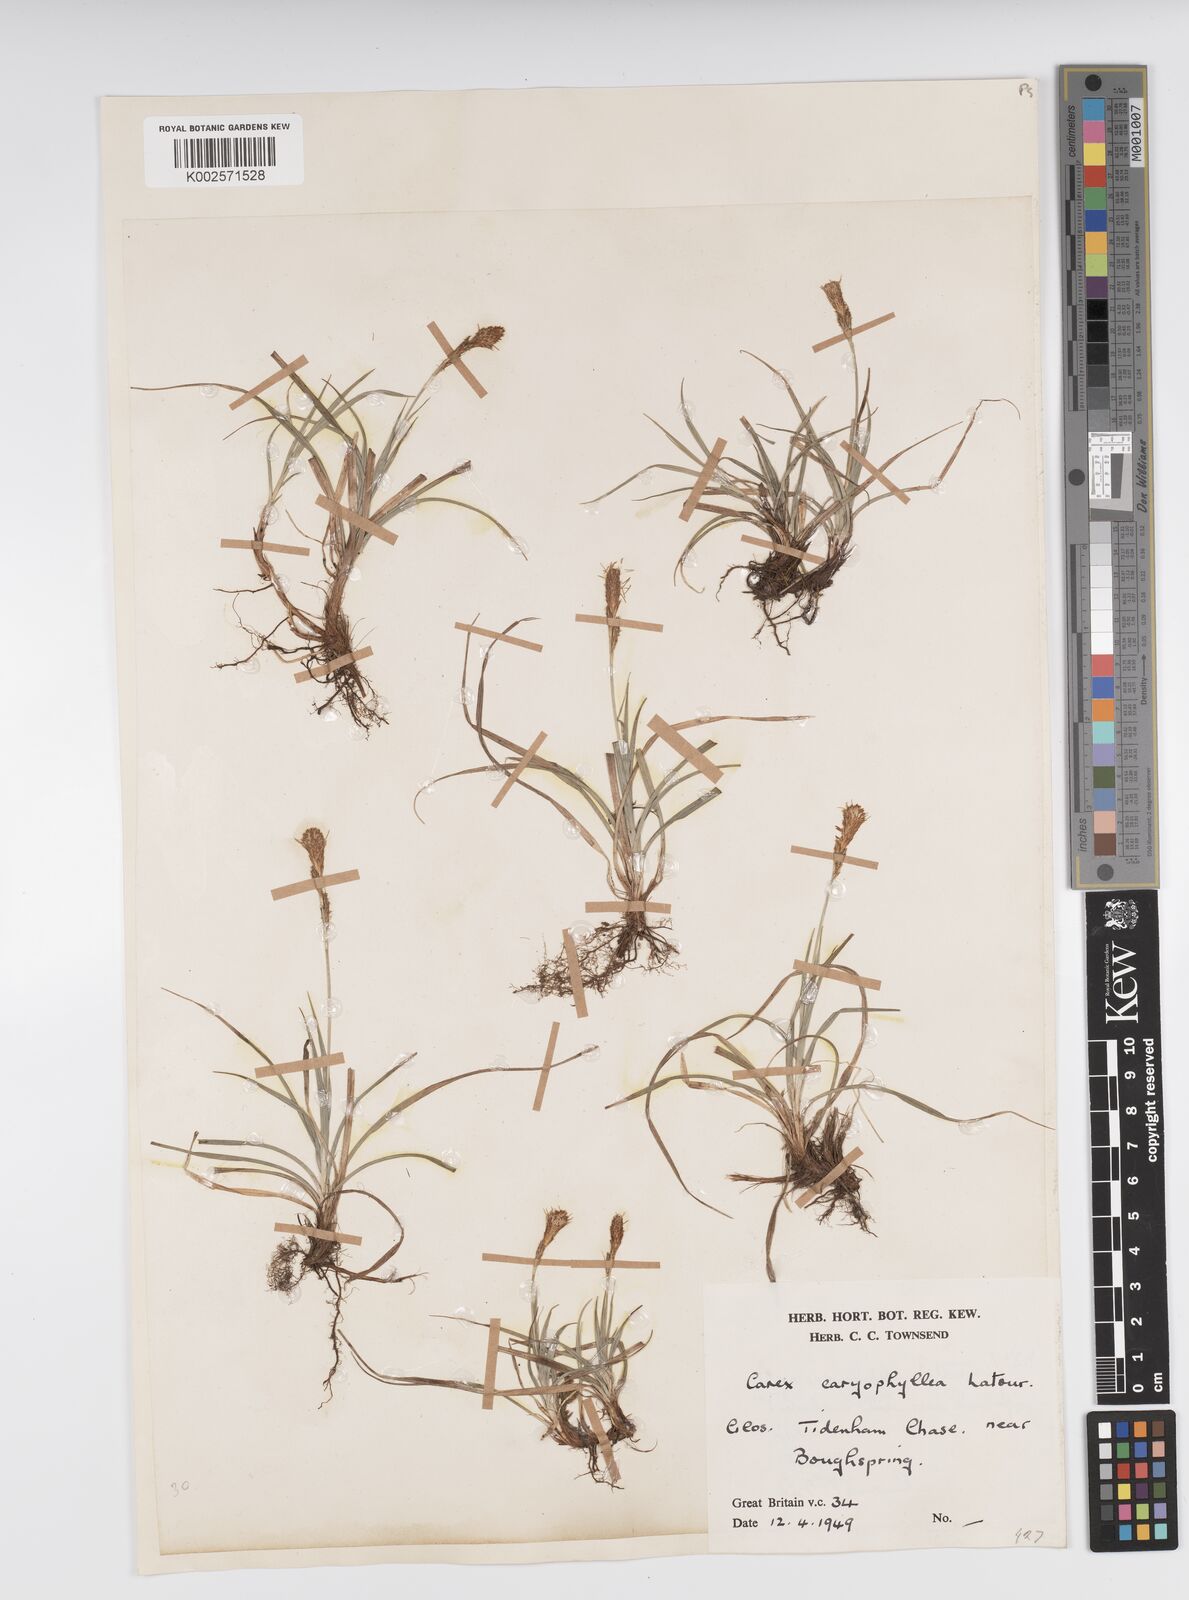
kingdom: Plantae
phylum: Tracheophyta
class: Liliopsida
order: Poales
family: Cyperaceae
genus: Carex
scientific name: Carex caryophyllea
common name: Spring sedge
